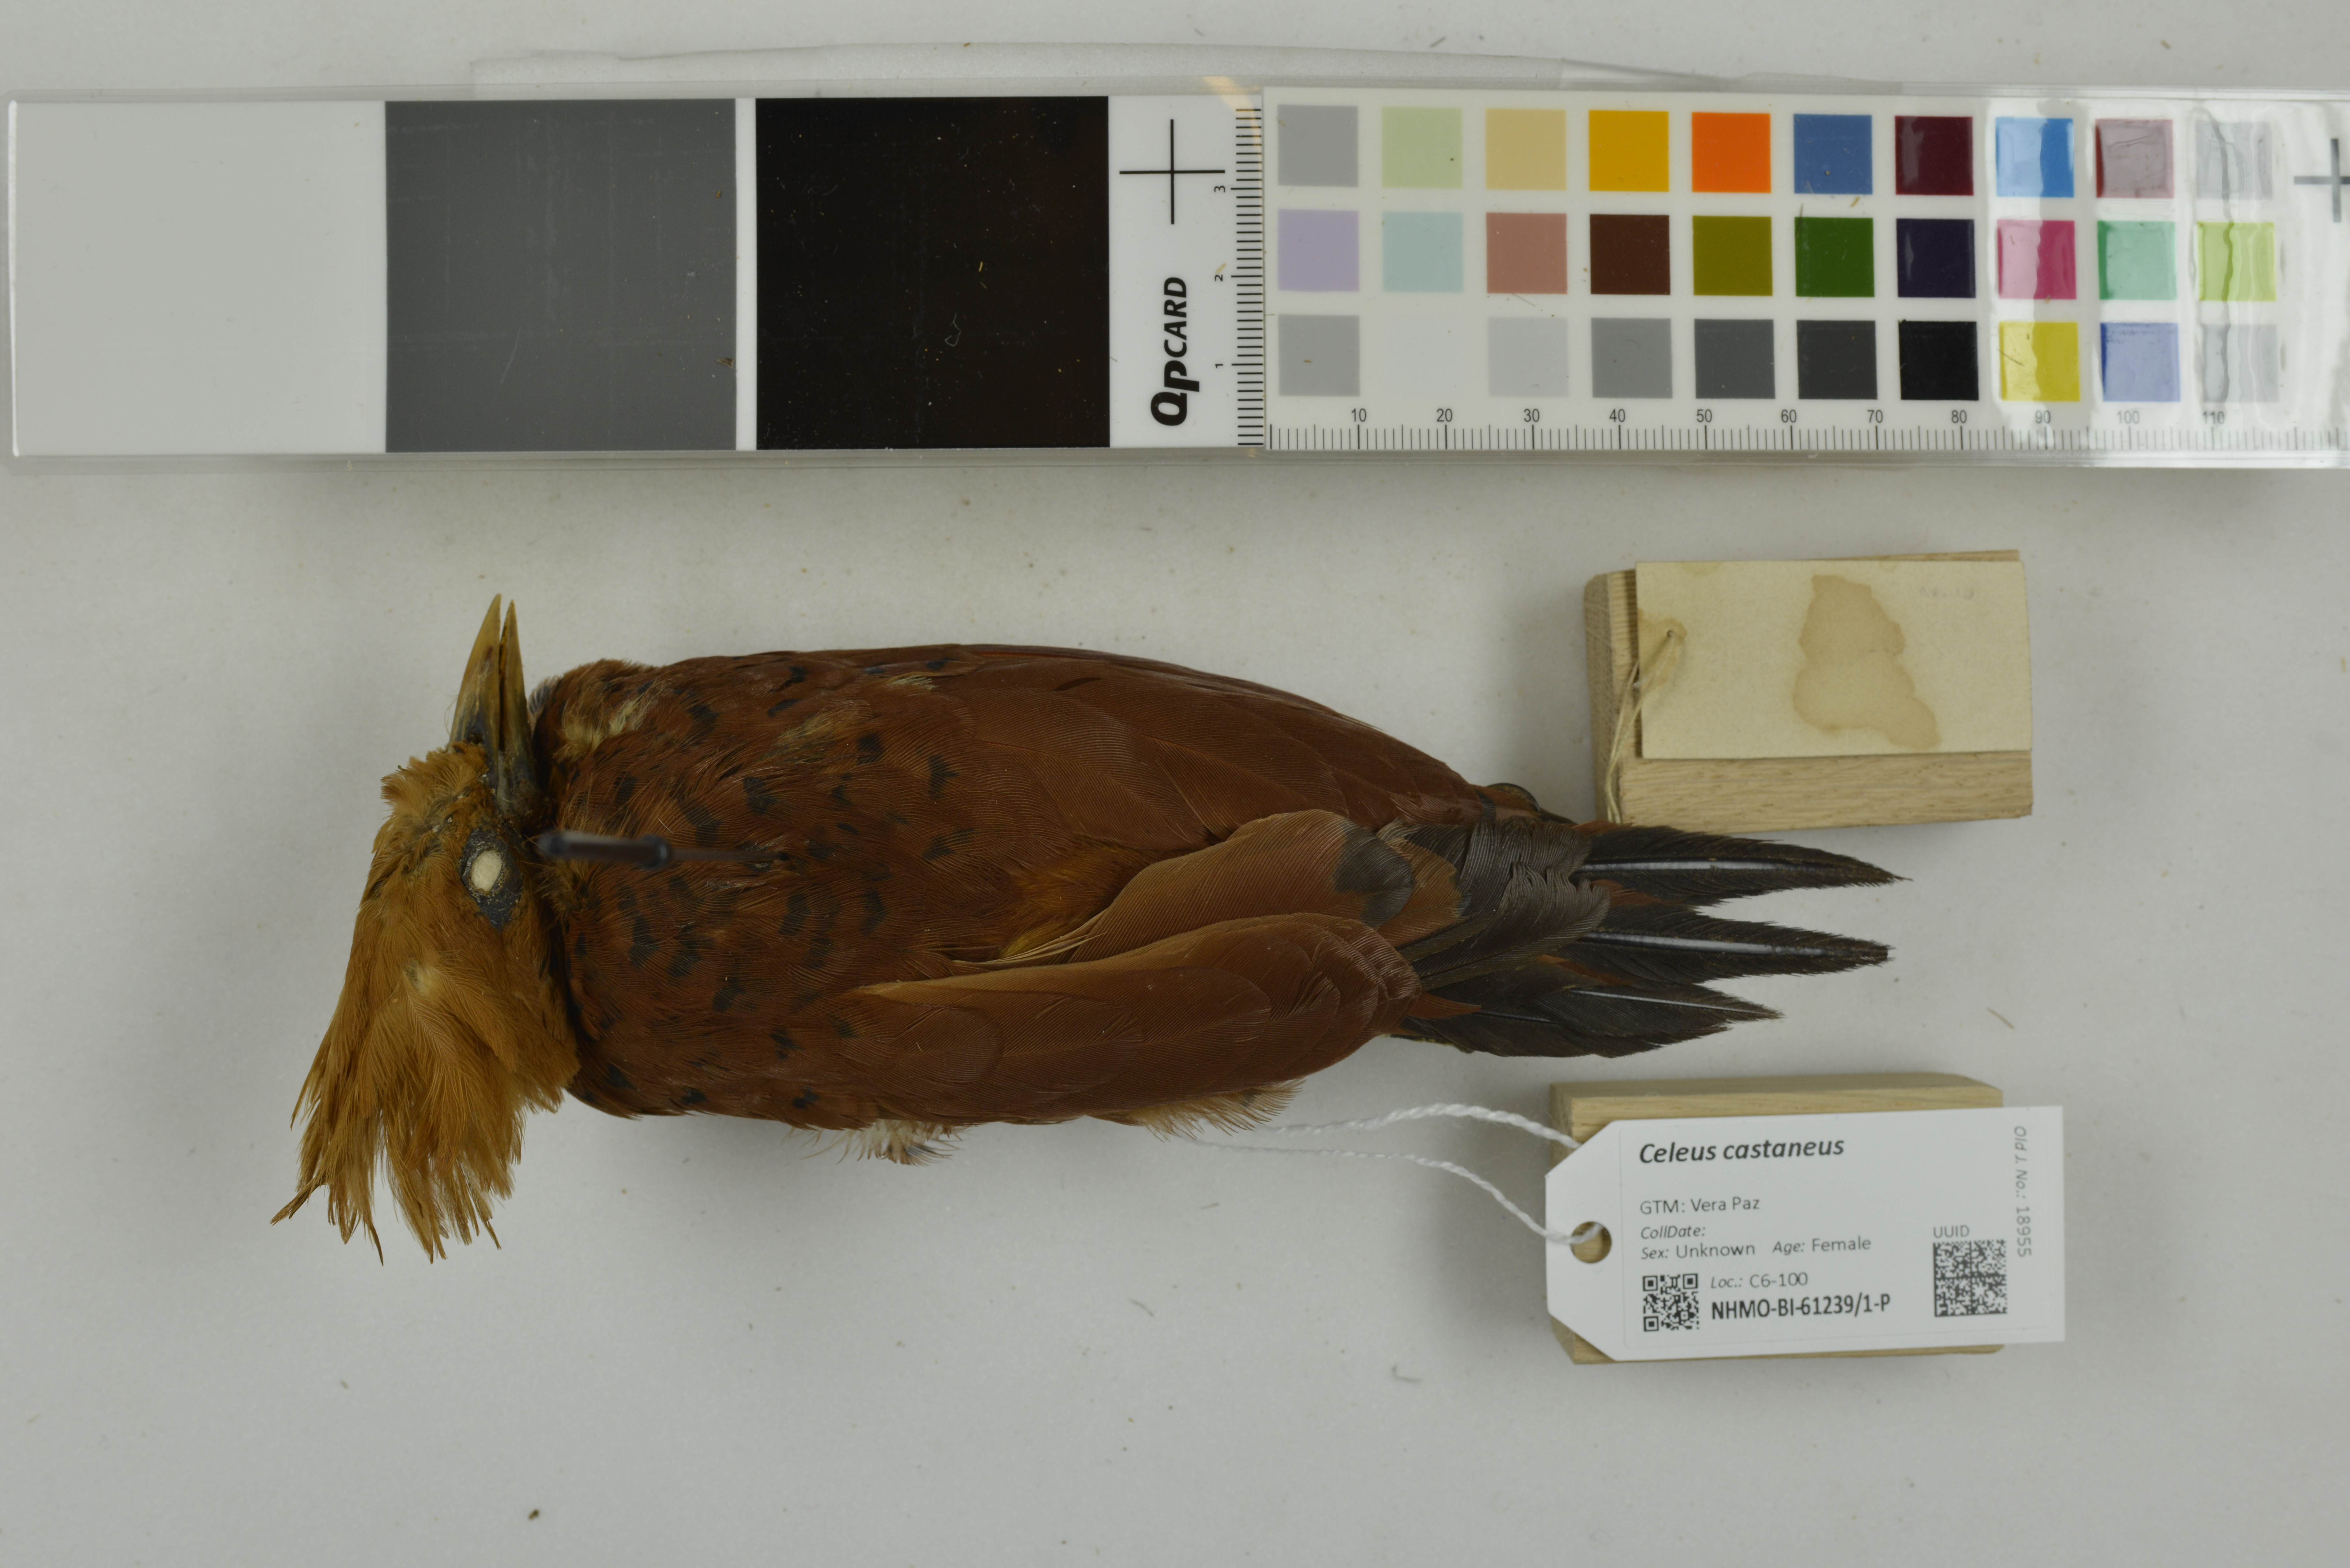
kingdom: Animalia
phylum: Chordata
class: Aves
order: Piciformes
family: Picidae
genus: Celeus
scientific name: Celeus castaneus
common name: Chestnut-colored woodpecker
